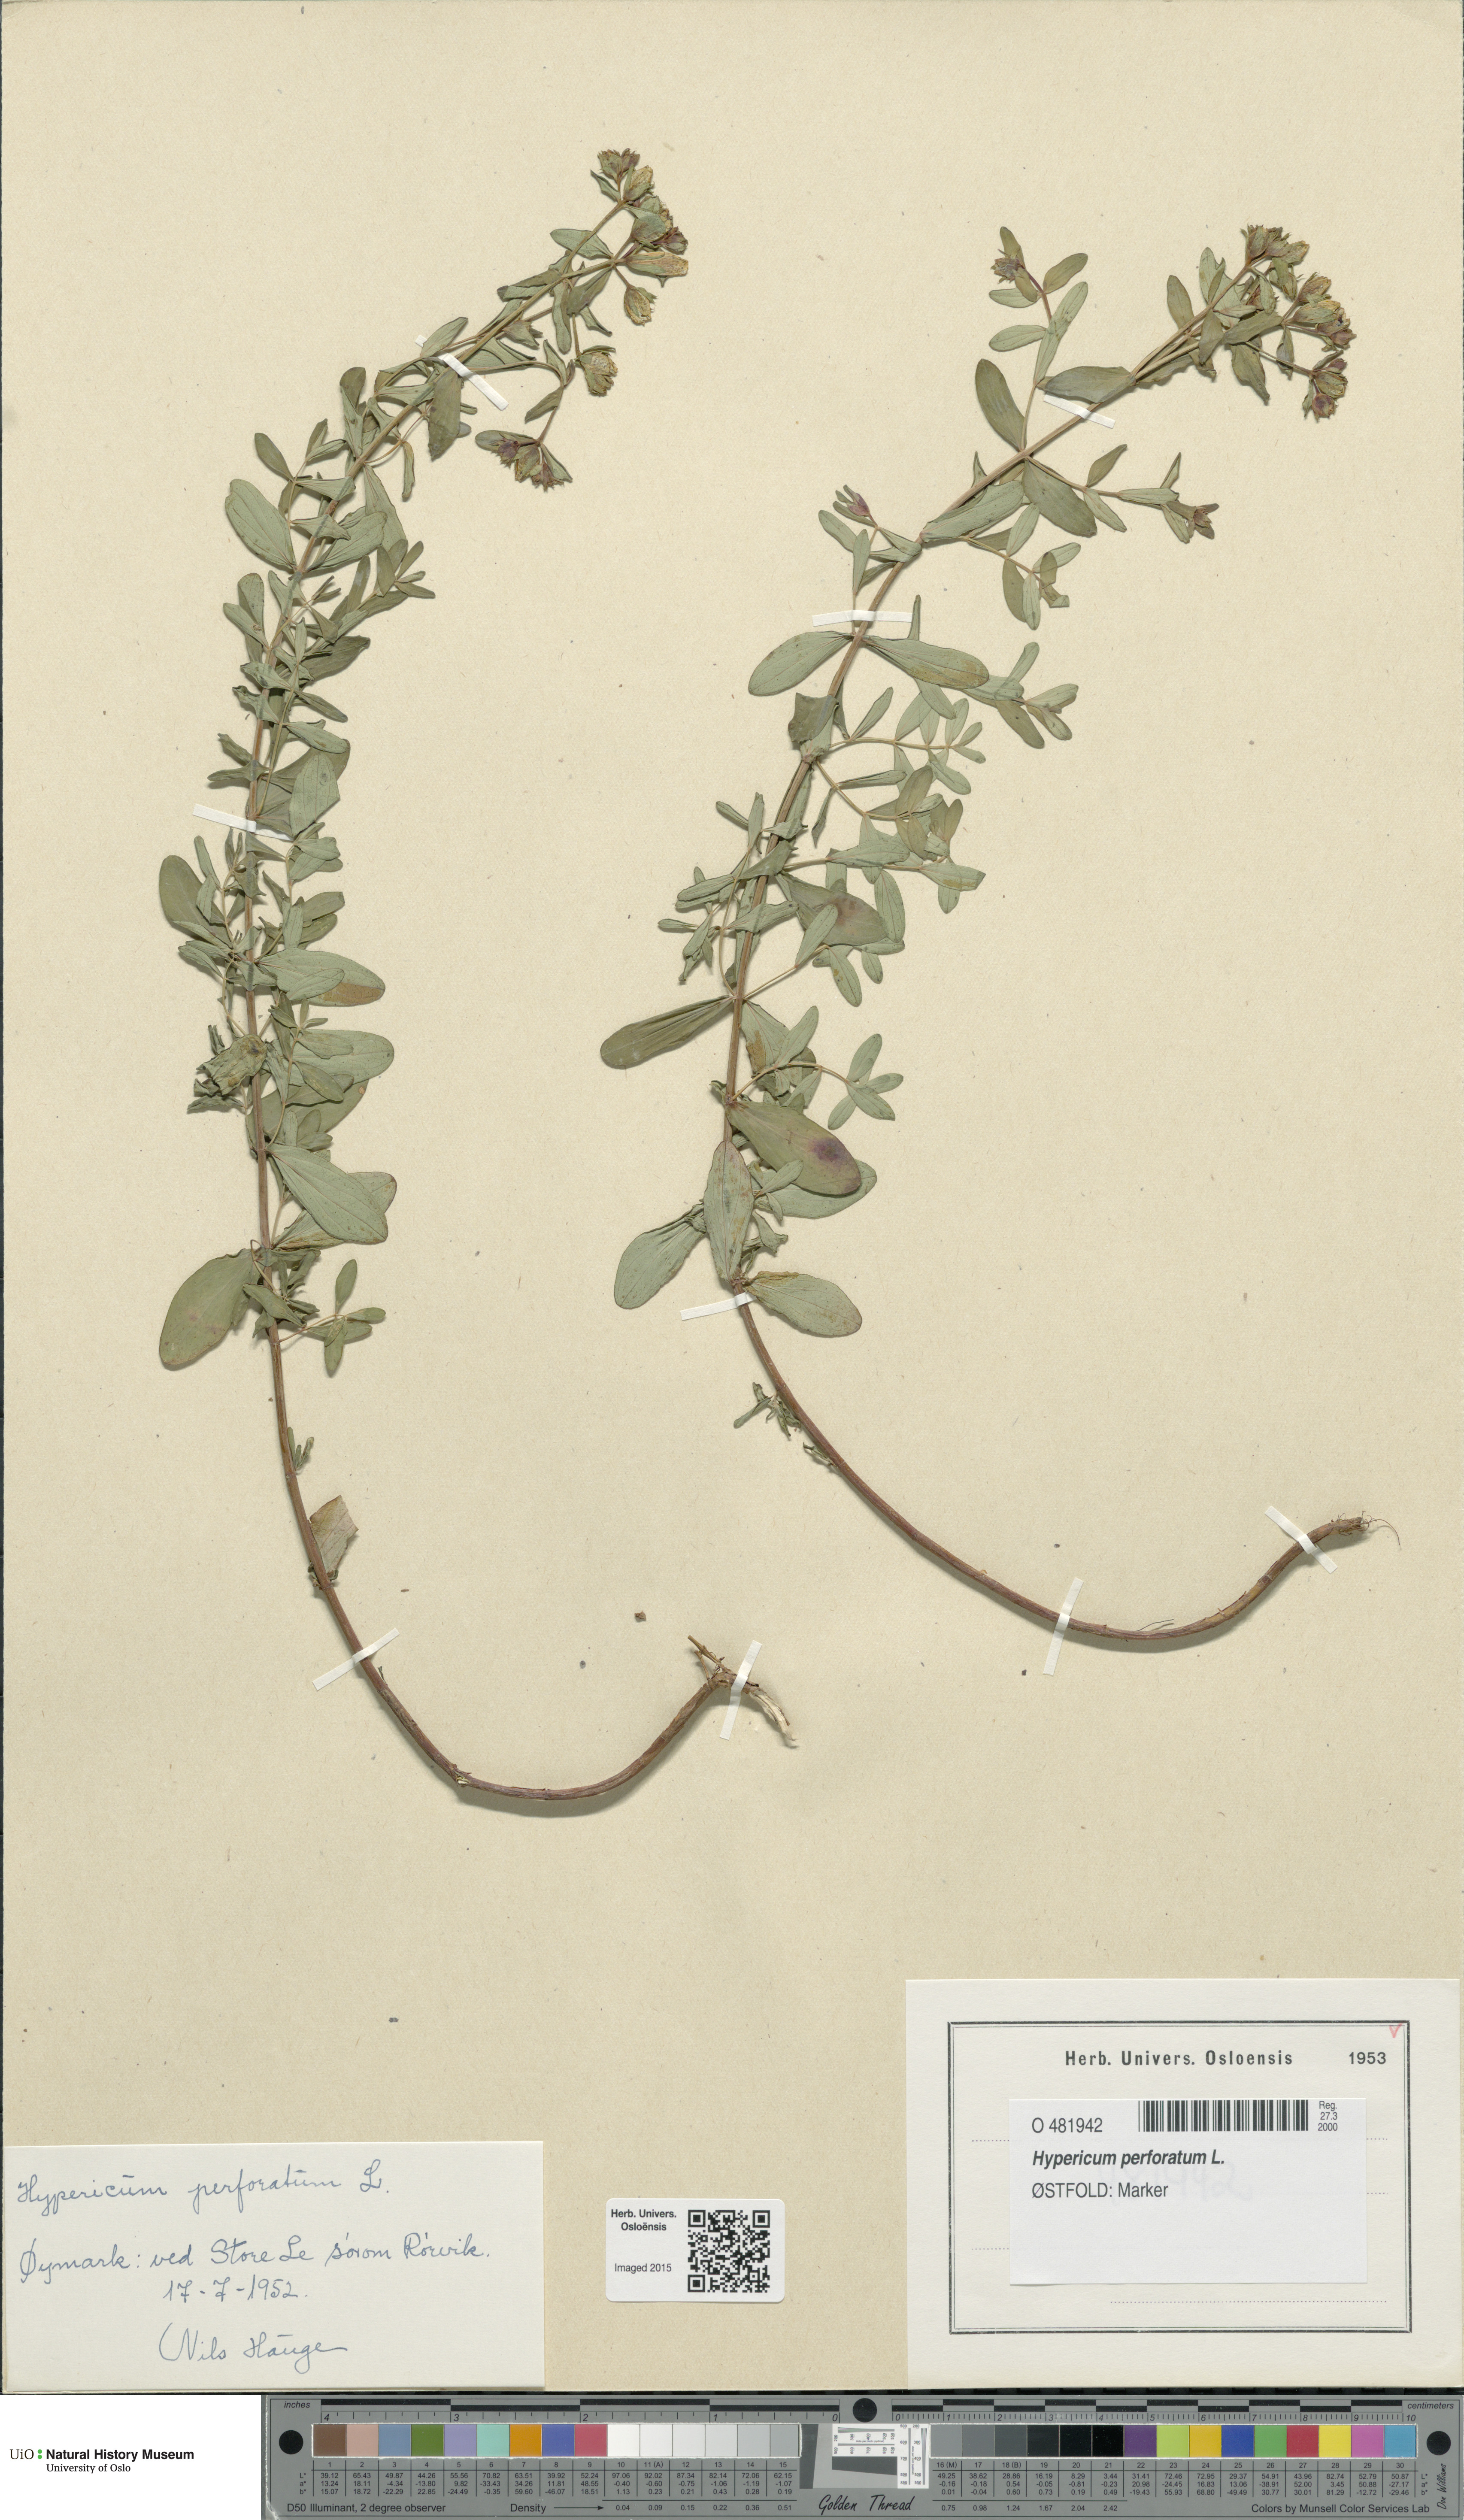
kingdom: Plantae
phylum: Tracheophyta
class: Magnoliopsida
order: Malpighiales
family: Hypericaceae
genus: Hypericum
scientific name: Hypericum perforatum
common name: Common st. johnswort
